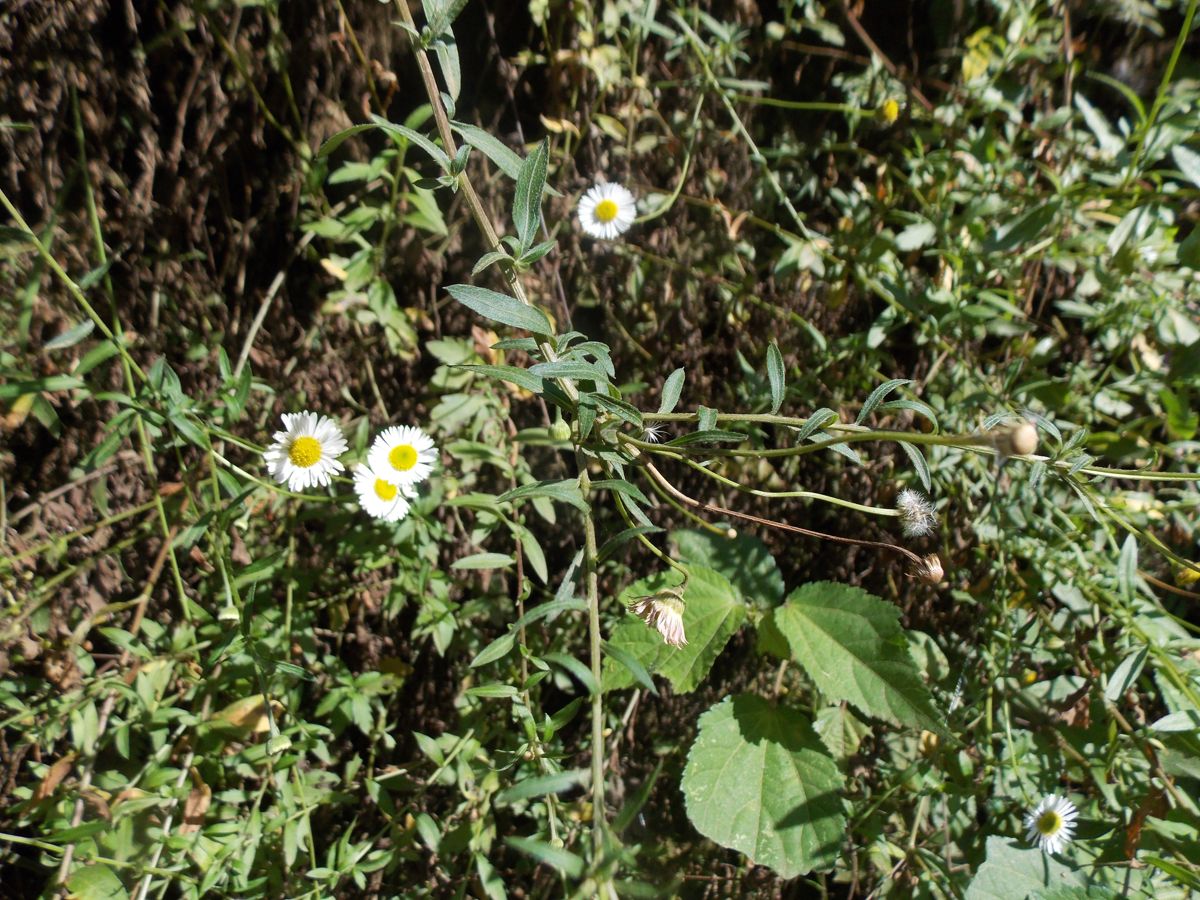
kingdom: Plantae
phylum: Tracheophyta
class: Magnoliopsida
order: Asterales
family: Asteraceae
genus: Erigeron
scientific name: Erigeron karvinskianus
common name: Mexican fleabane
